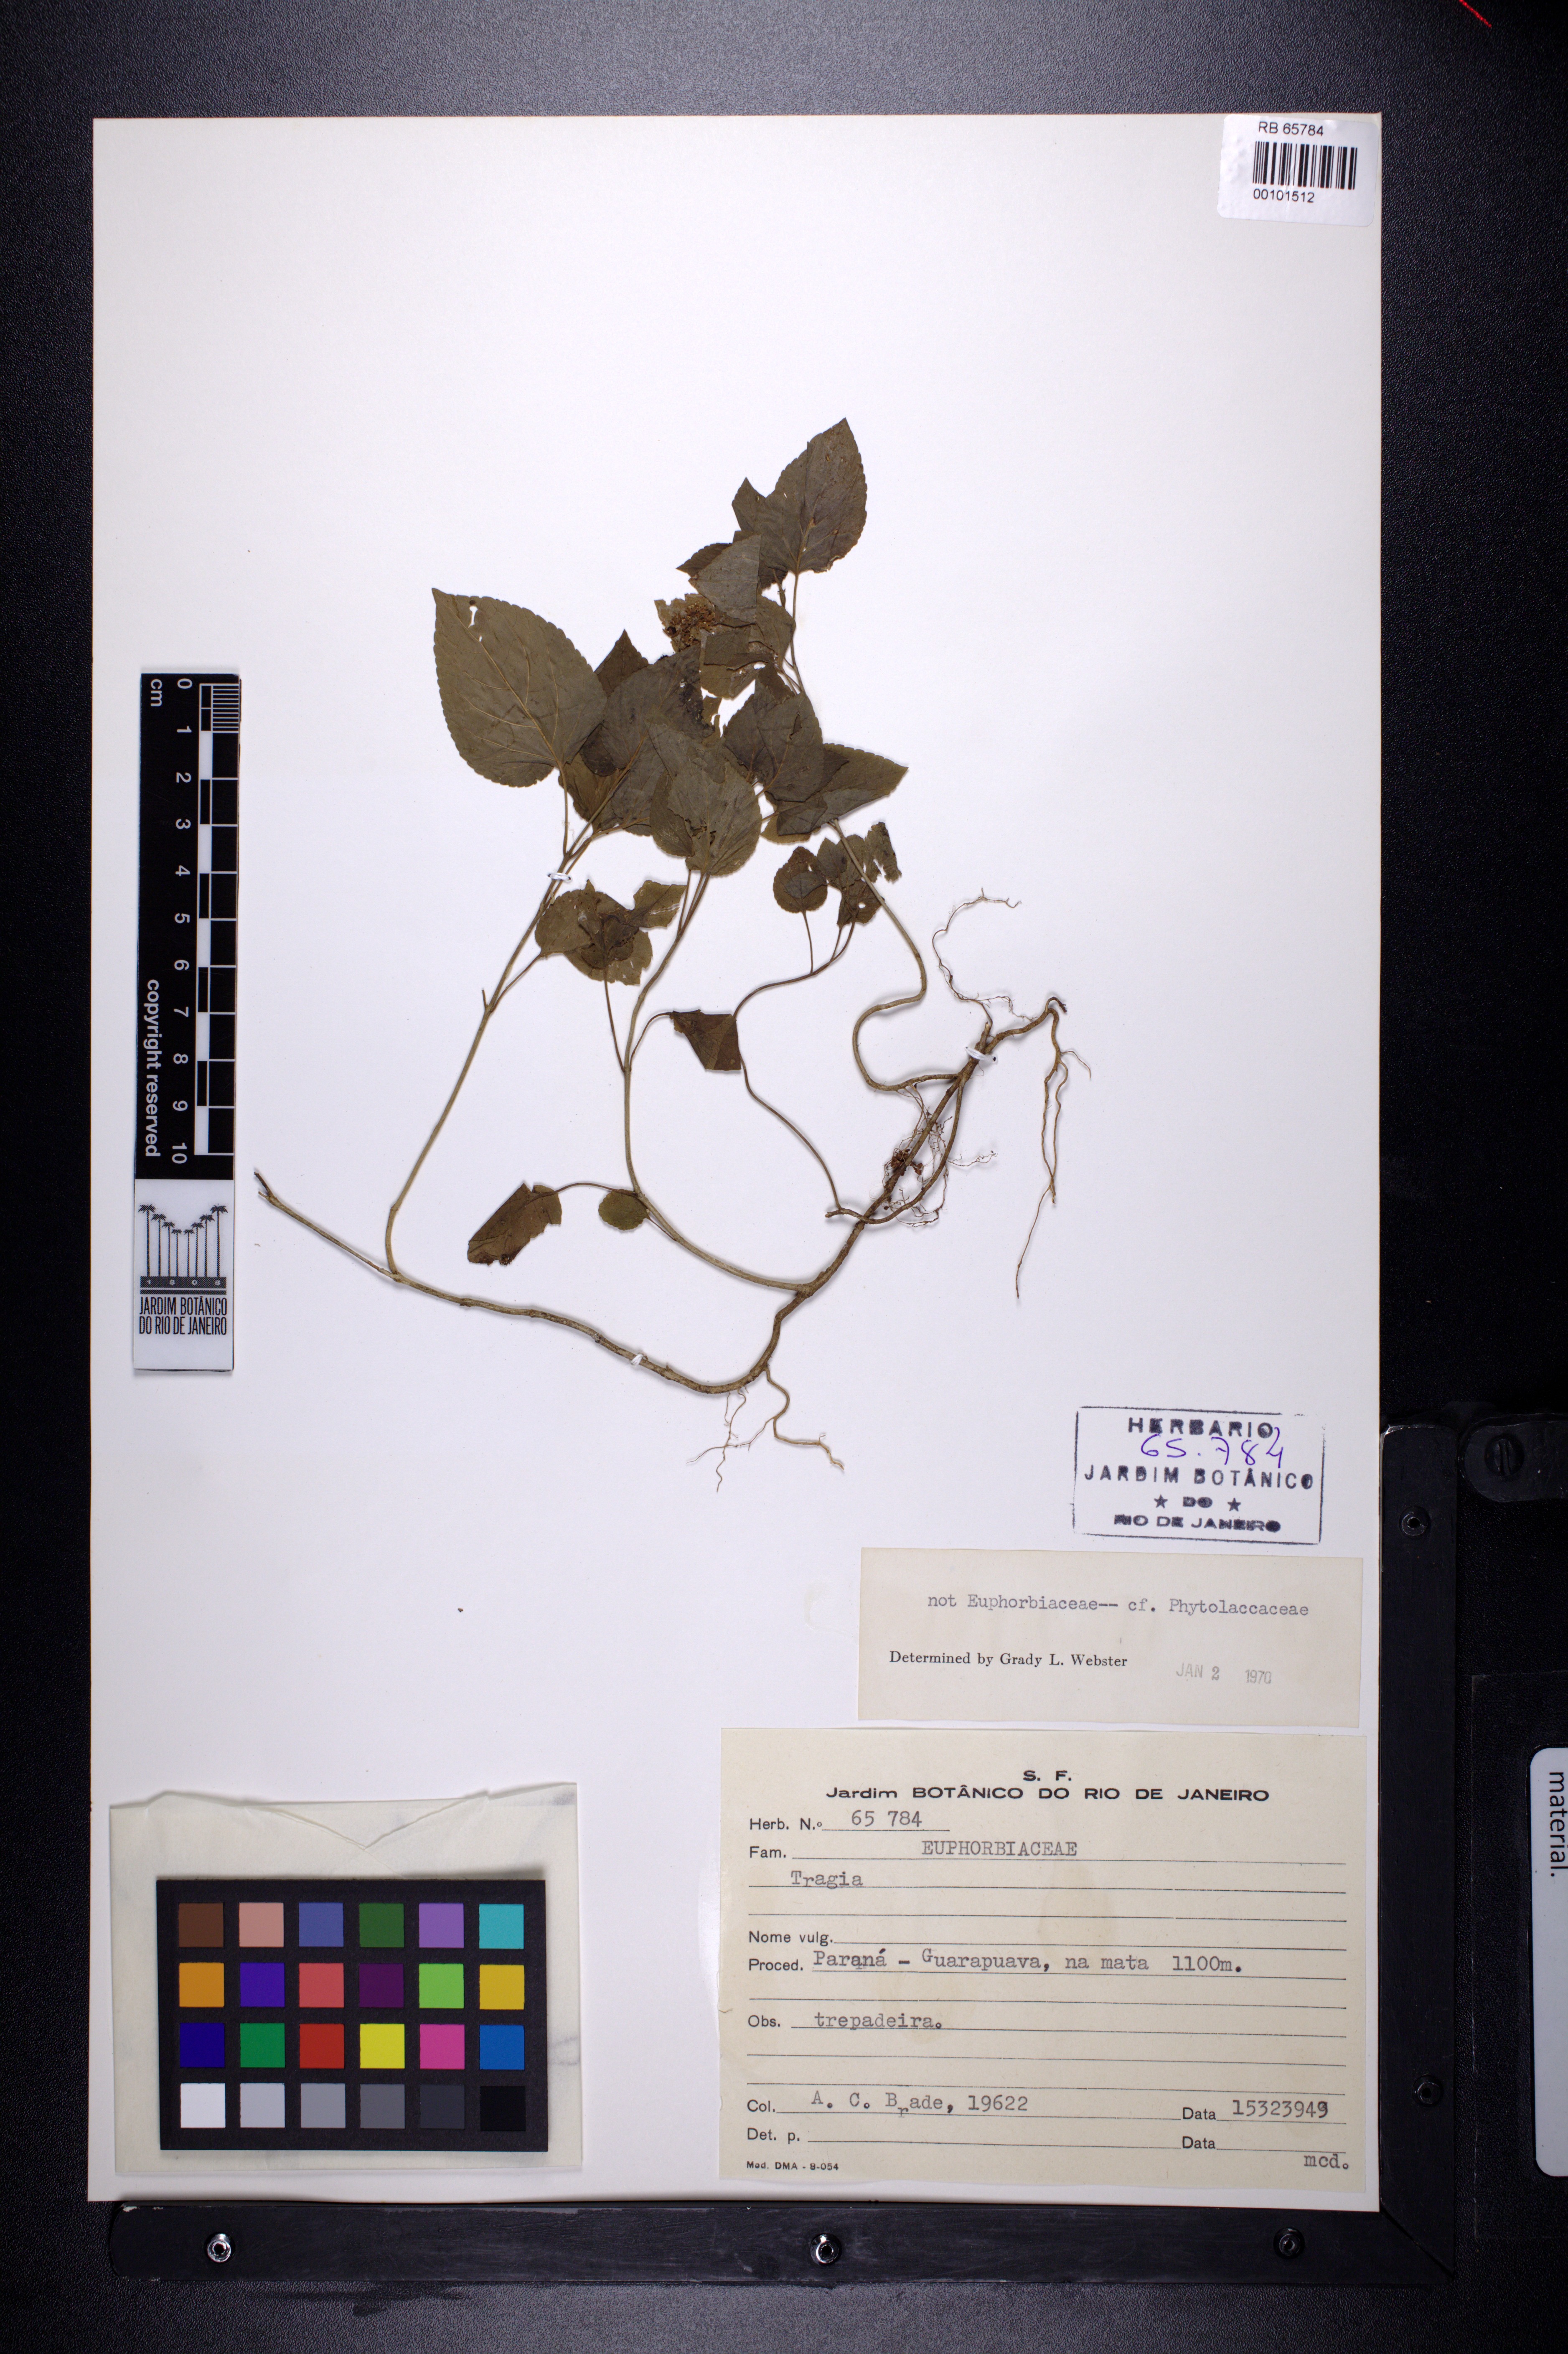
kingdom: Plantae
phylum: Tracheophyta
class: Magnoliopsida
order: Malpighiales
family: Euphorbiaceae
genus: Tragia
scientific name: Tragia volubilis
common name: Twining cow-itch
